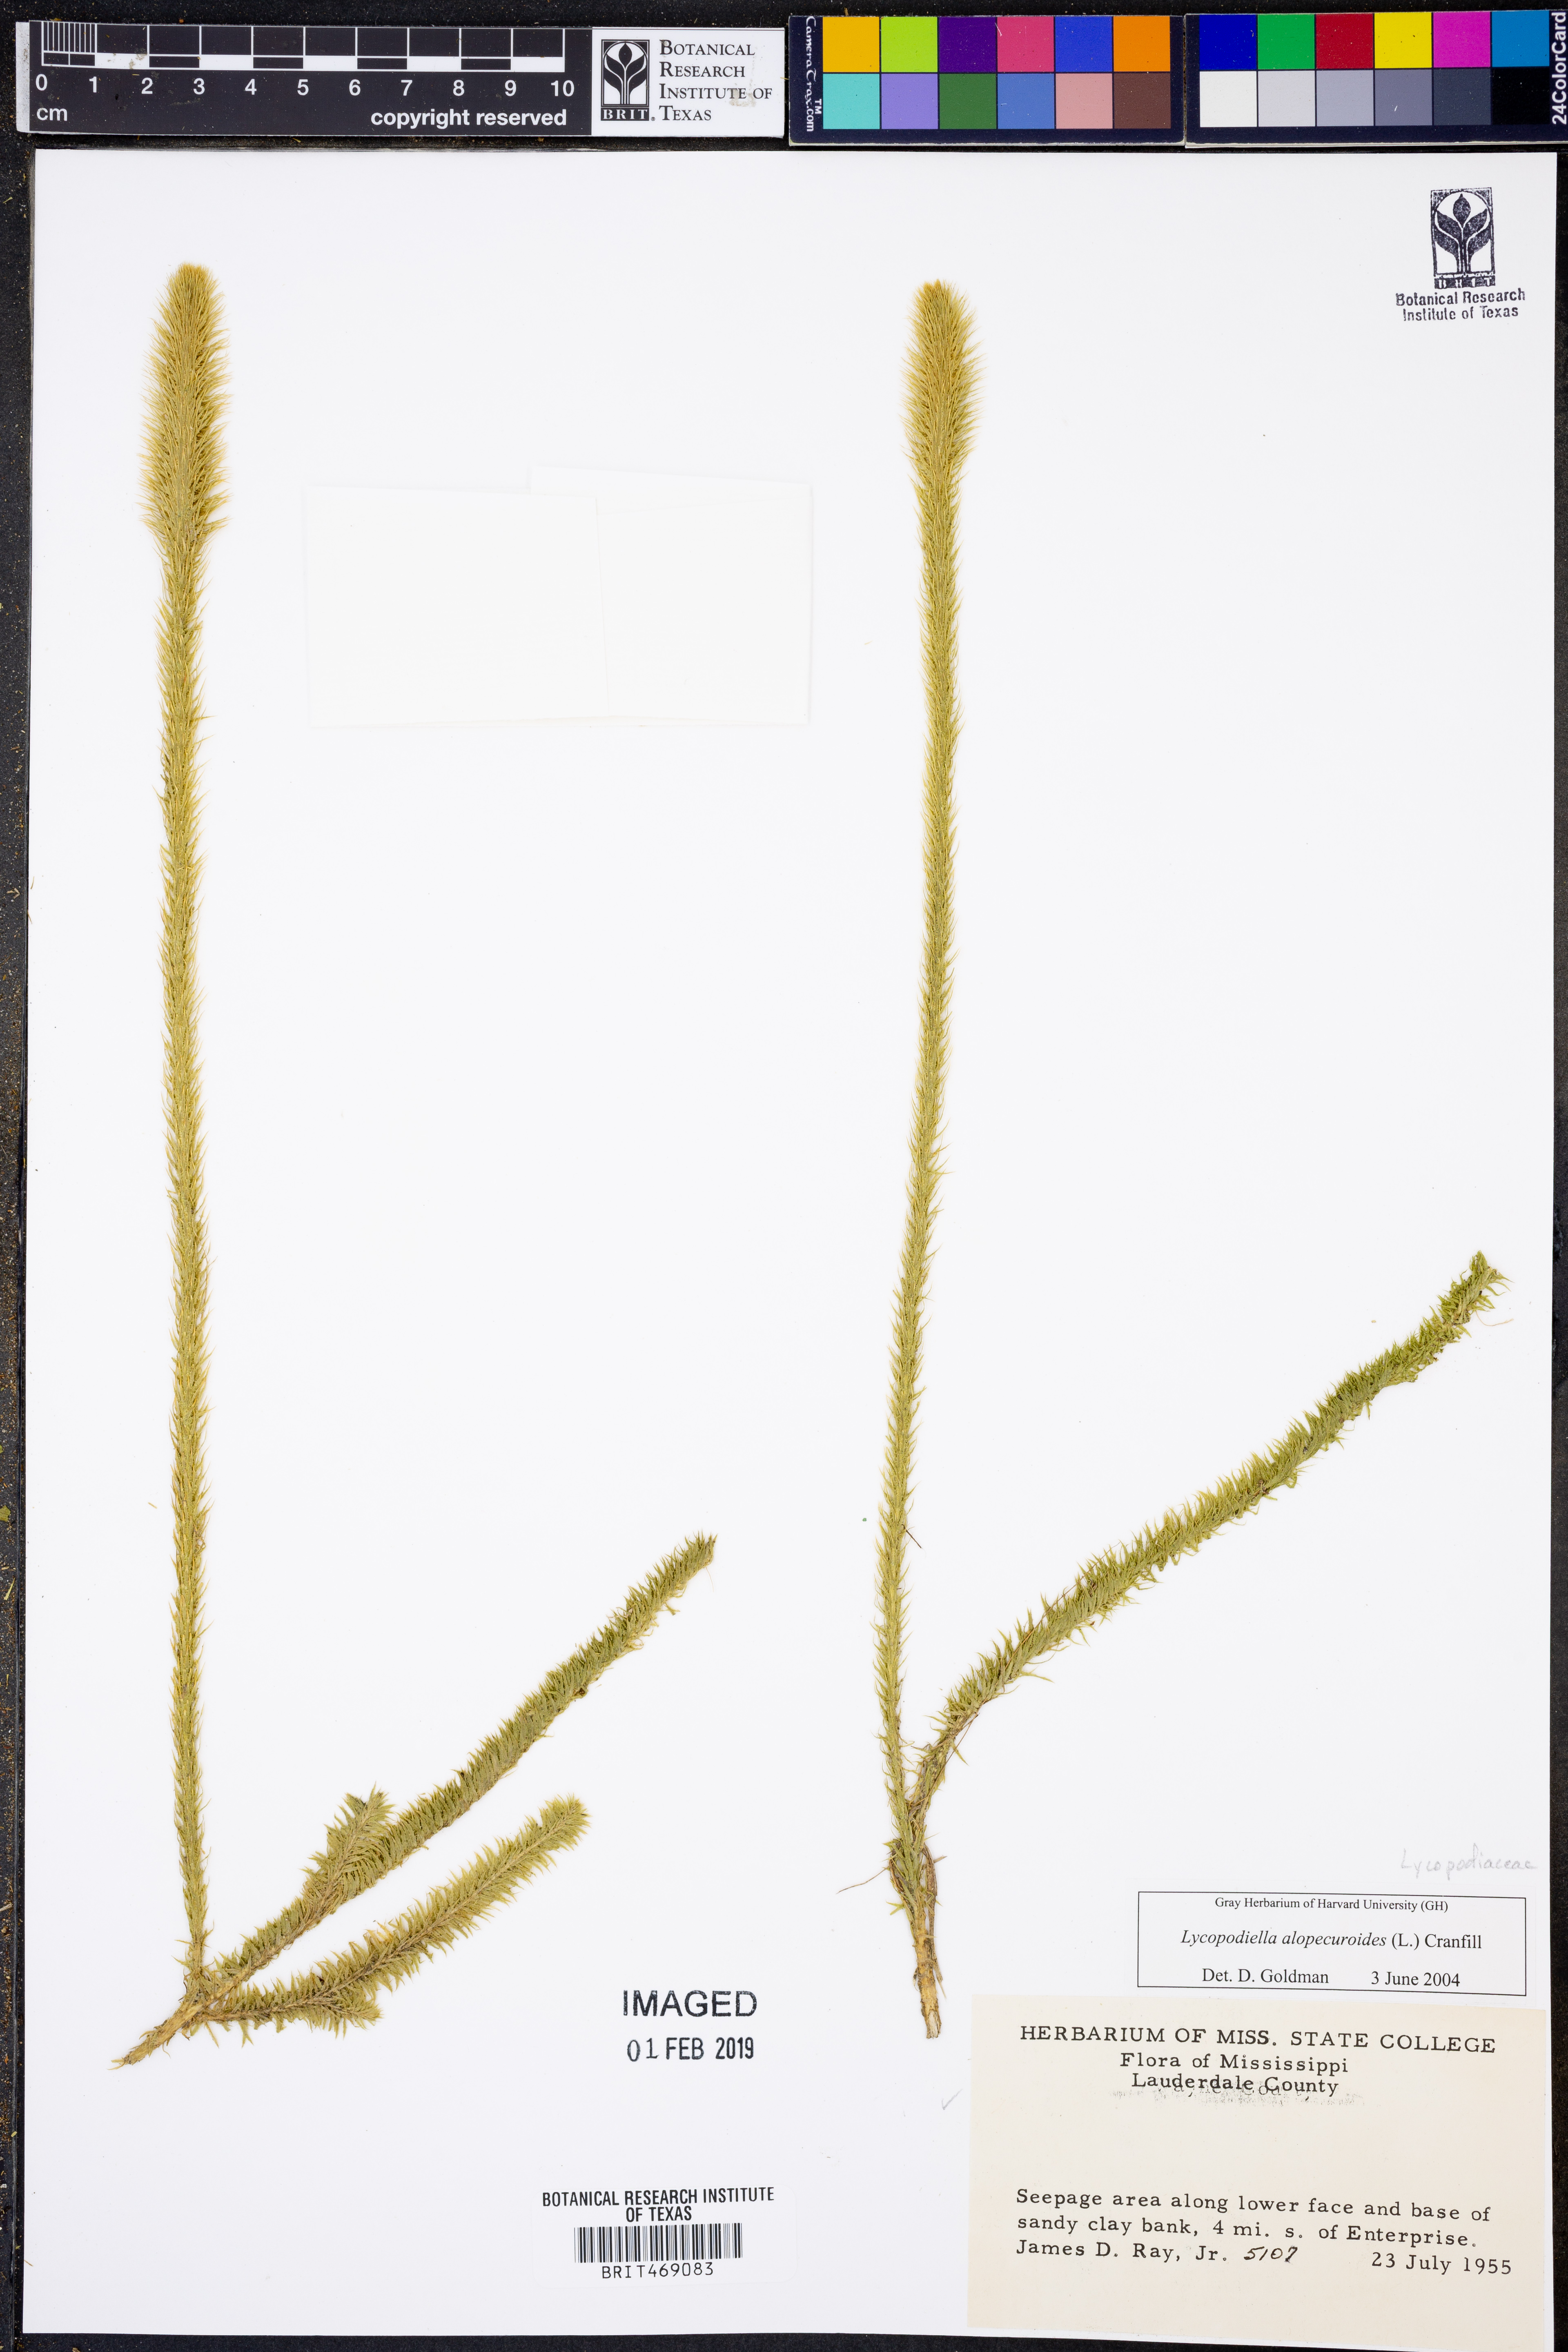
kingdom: Plantae
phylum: Tracheophyta
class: Lycopodiopsida
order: Lycopodiales
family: Lycopodiaceae
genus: Lycopodiella
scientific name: Lycopodiella alopecuroides
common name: Foxtail clubmoss
